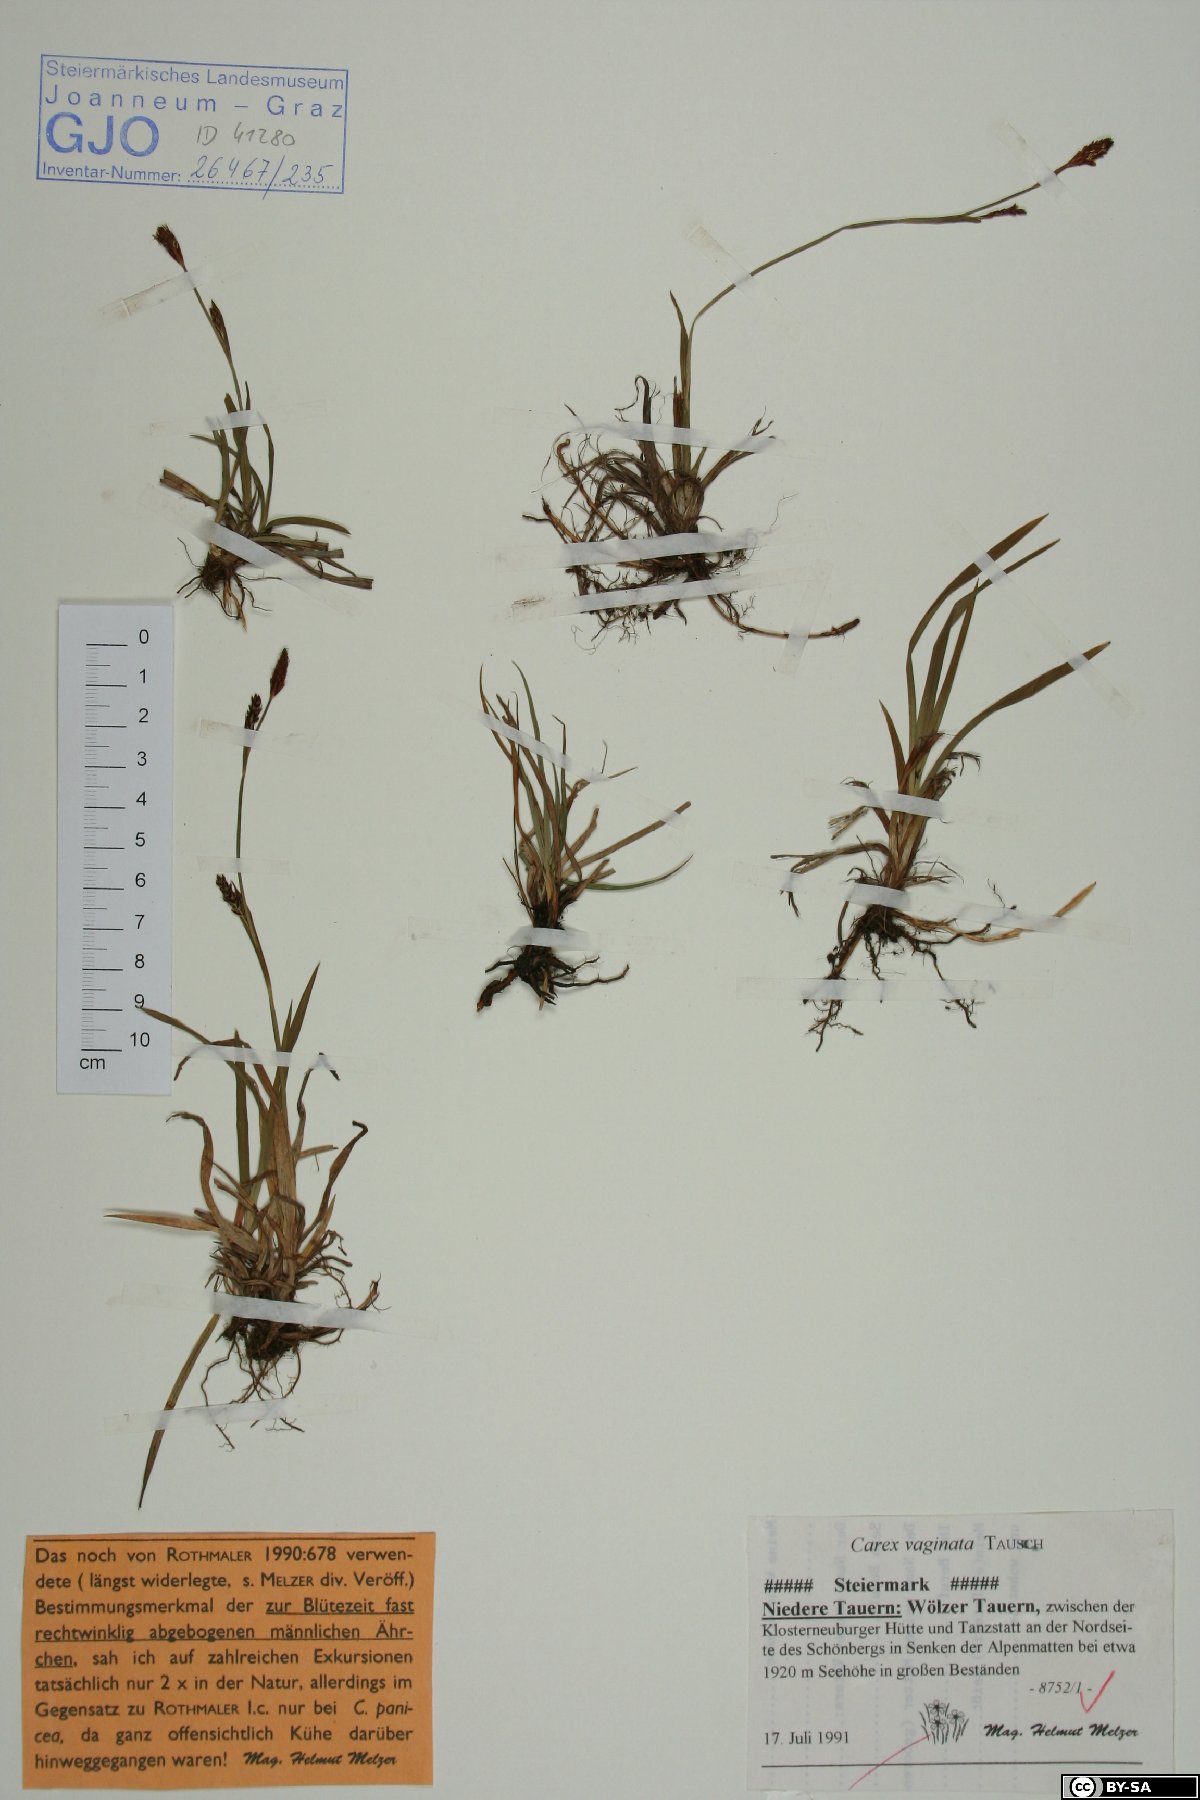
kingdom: Plantae
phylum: Tracheophyta
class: Liliopsida
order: Poales
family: Cyperaceae
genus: Carex
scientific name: Carex vaginata
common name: Sheathed sedge
